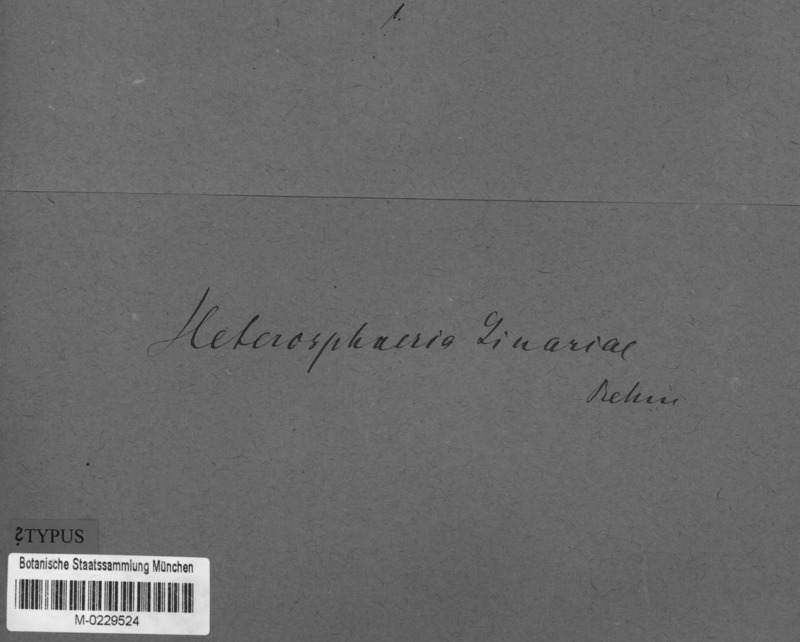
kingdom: Fungi
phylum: Ascomycota
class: Leotiomycetes
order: Helotiales
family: Heterosphaeriaceae
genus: Heterosphaeria
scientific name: Heterosphaeria linariae
